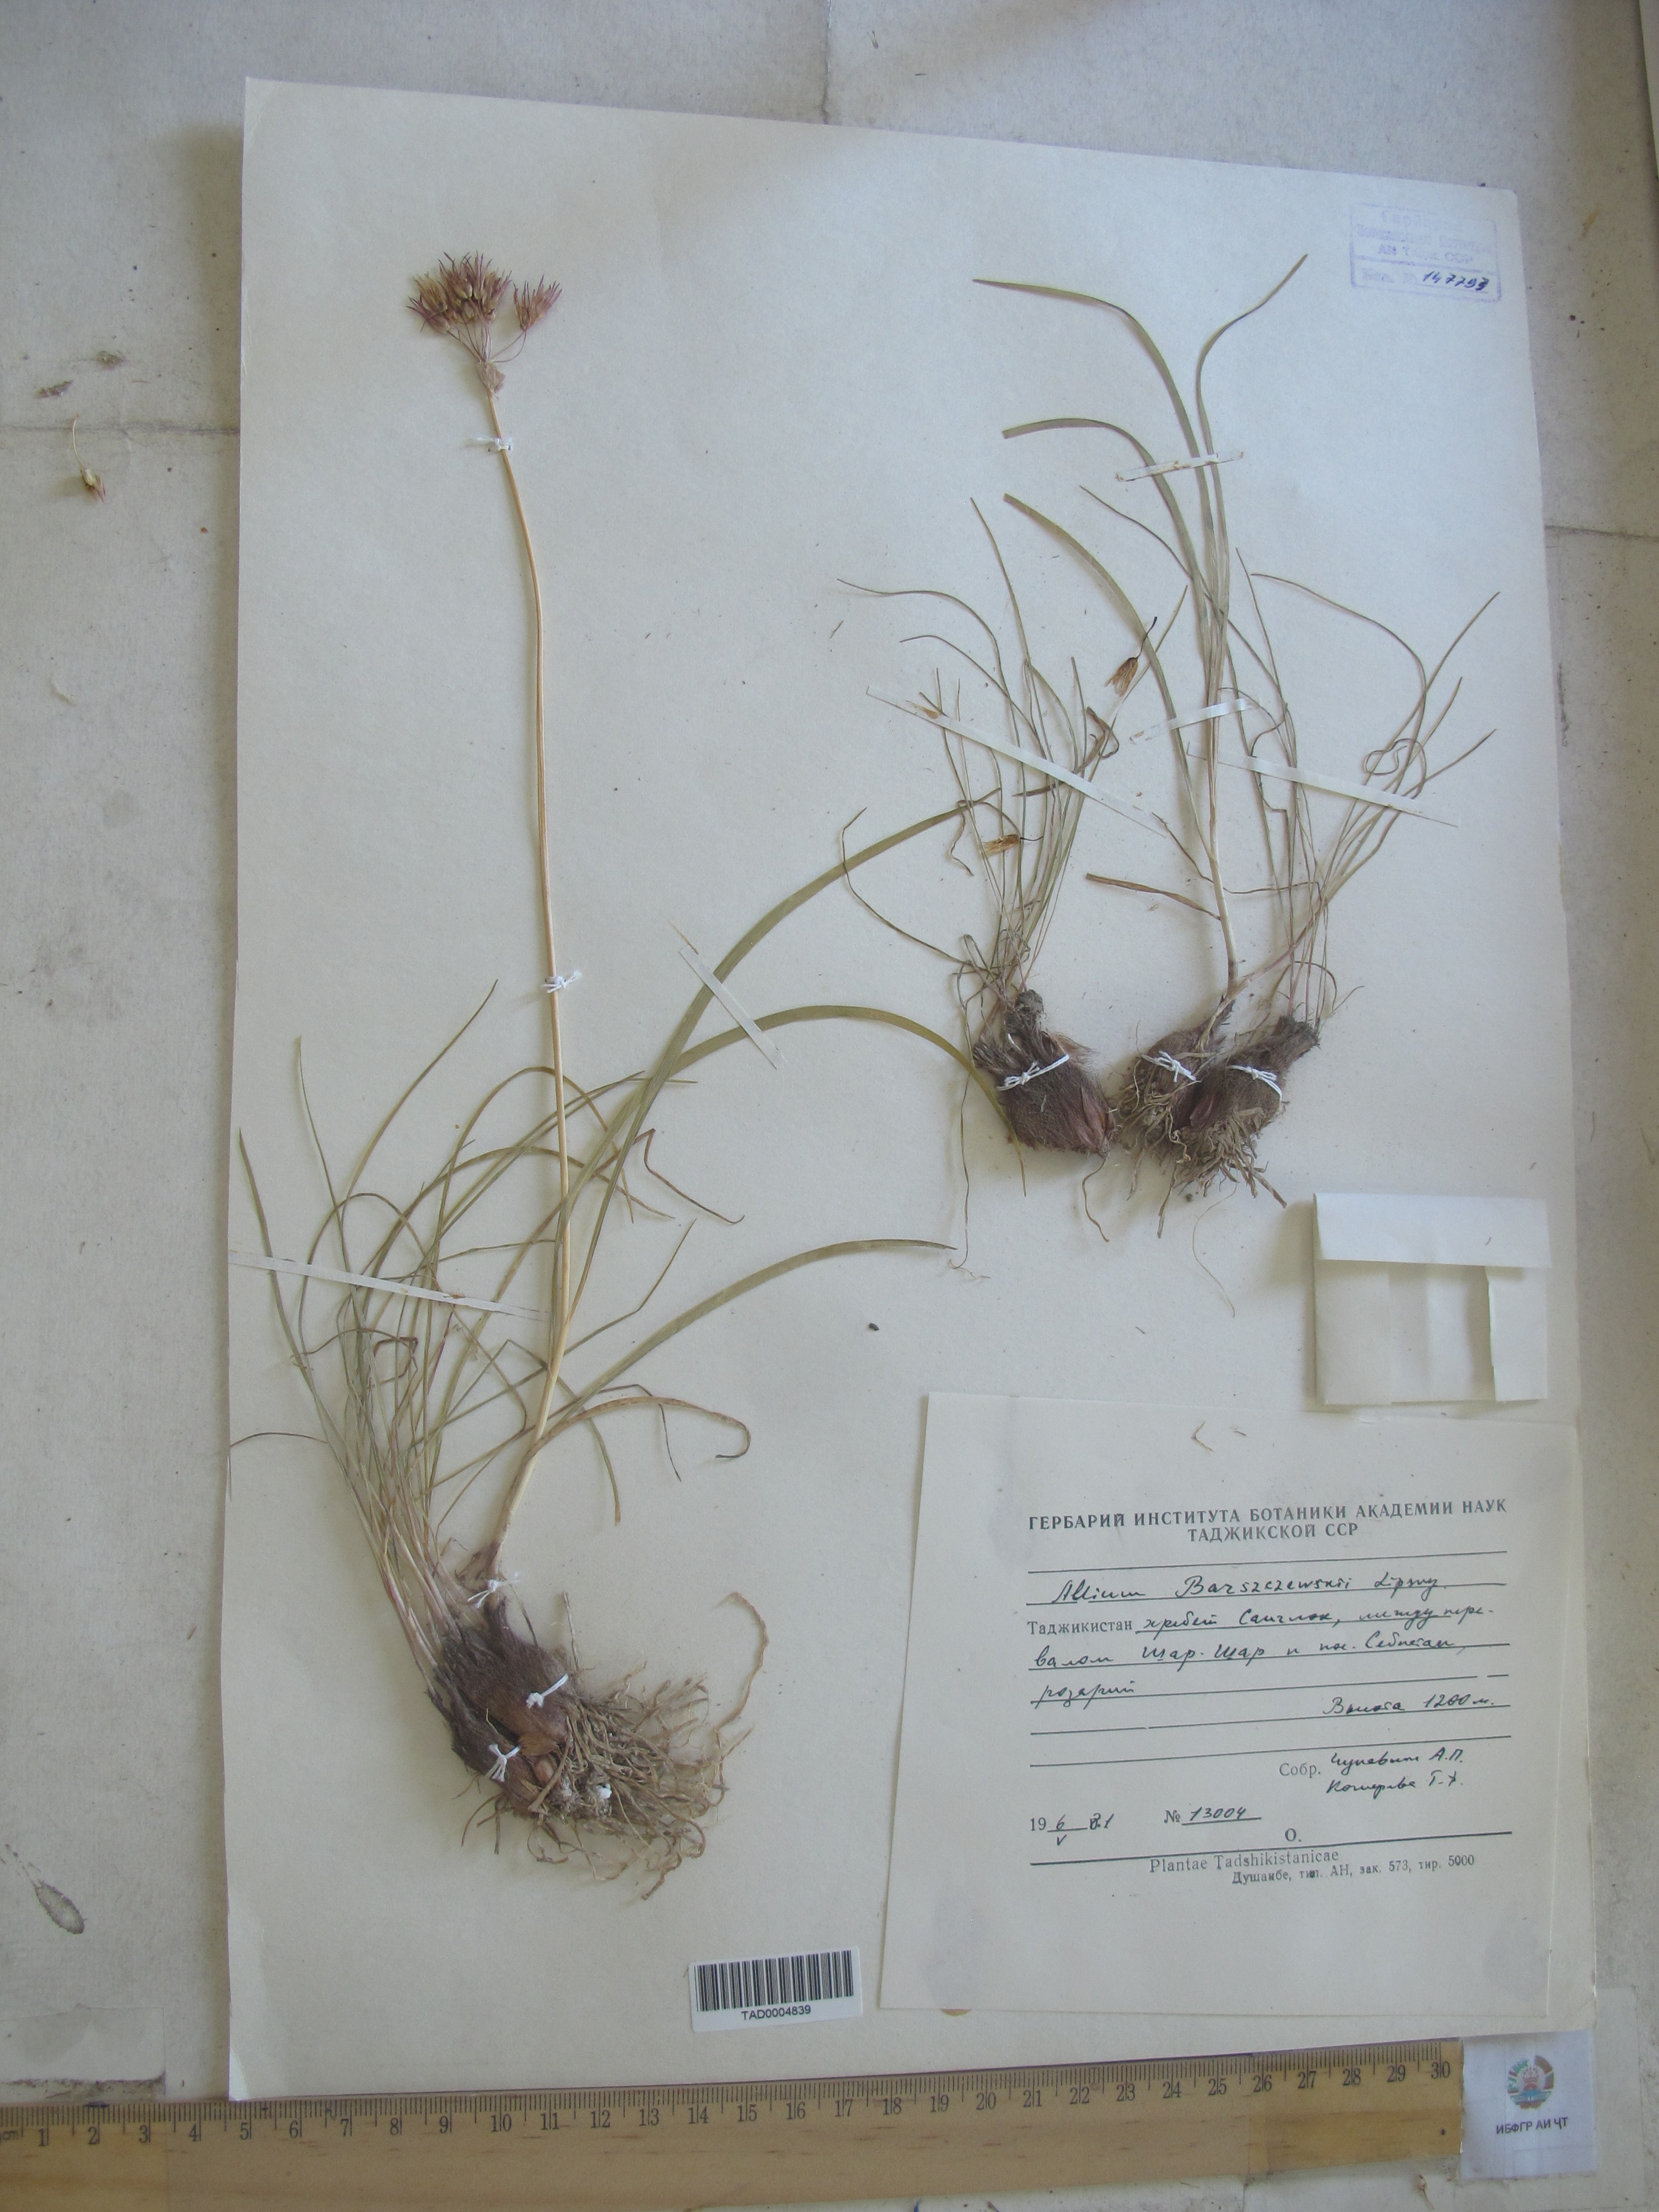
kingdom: Plantae
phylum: Tracheophyta
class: Liliopsida
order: Asparagales
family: Amaryllidaceae
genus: Allium
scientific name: Allium barsczewskii
